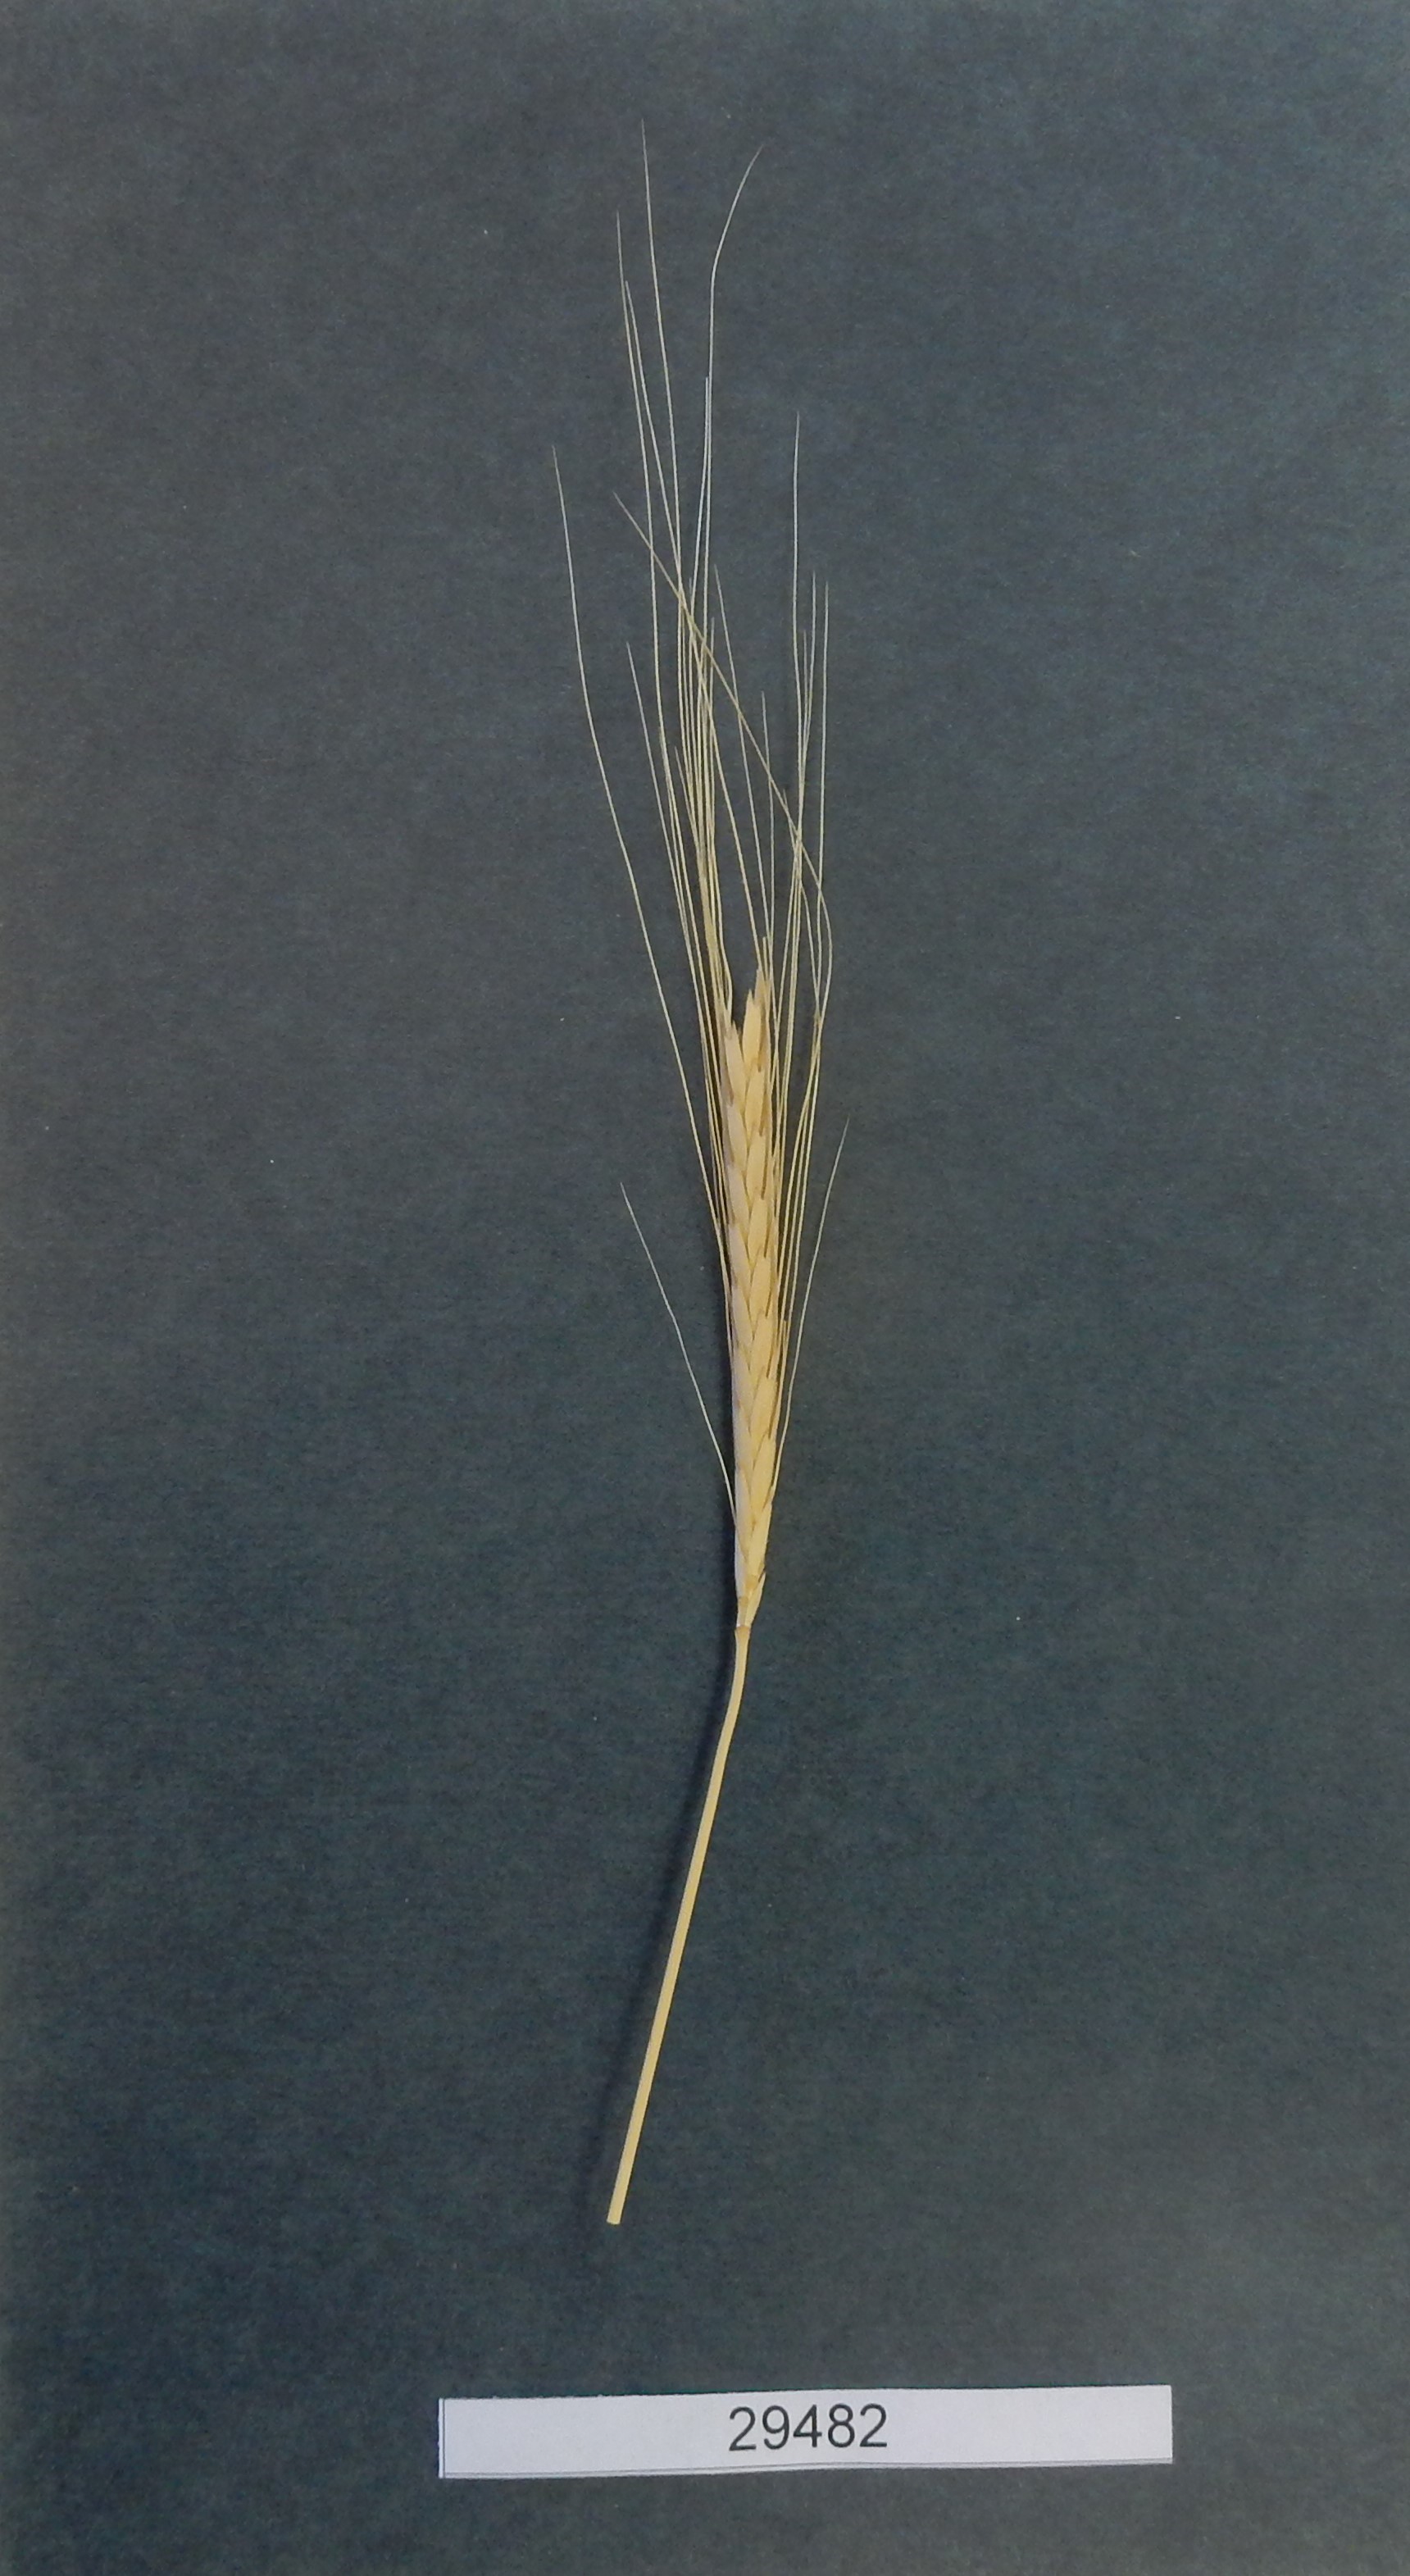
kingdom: Plantae
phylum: Tracheophyta
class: Liliopsida
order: Poales
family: Poaceae
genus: Triticum
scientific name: Triticum monococcum
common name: Wheat
